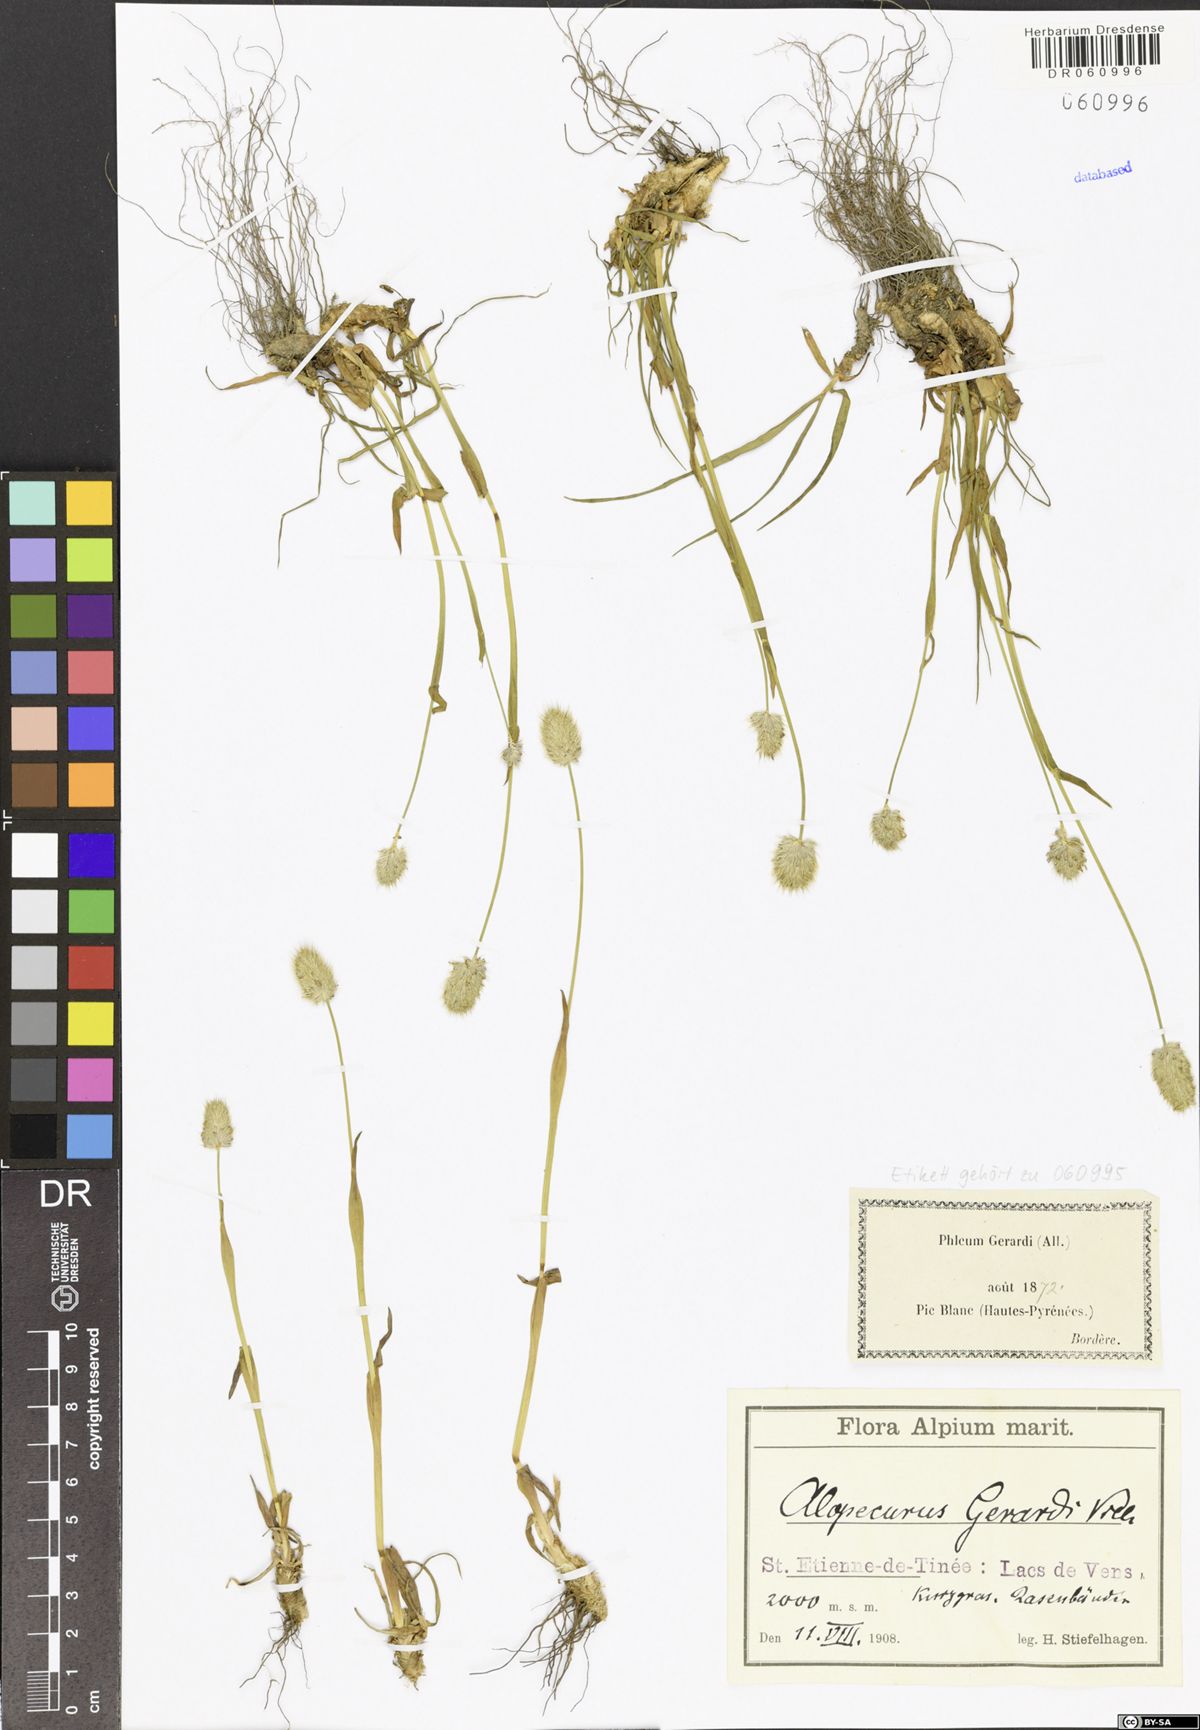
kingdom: Plantae
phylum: Tracheophyta
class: Liliopsida
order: Poales
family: Poaceae
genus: Alopecurus
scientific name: Alopecurus gerardii
